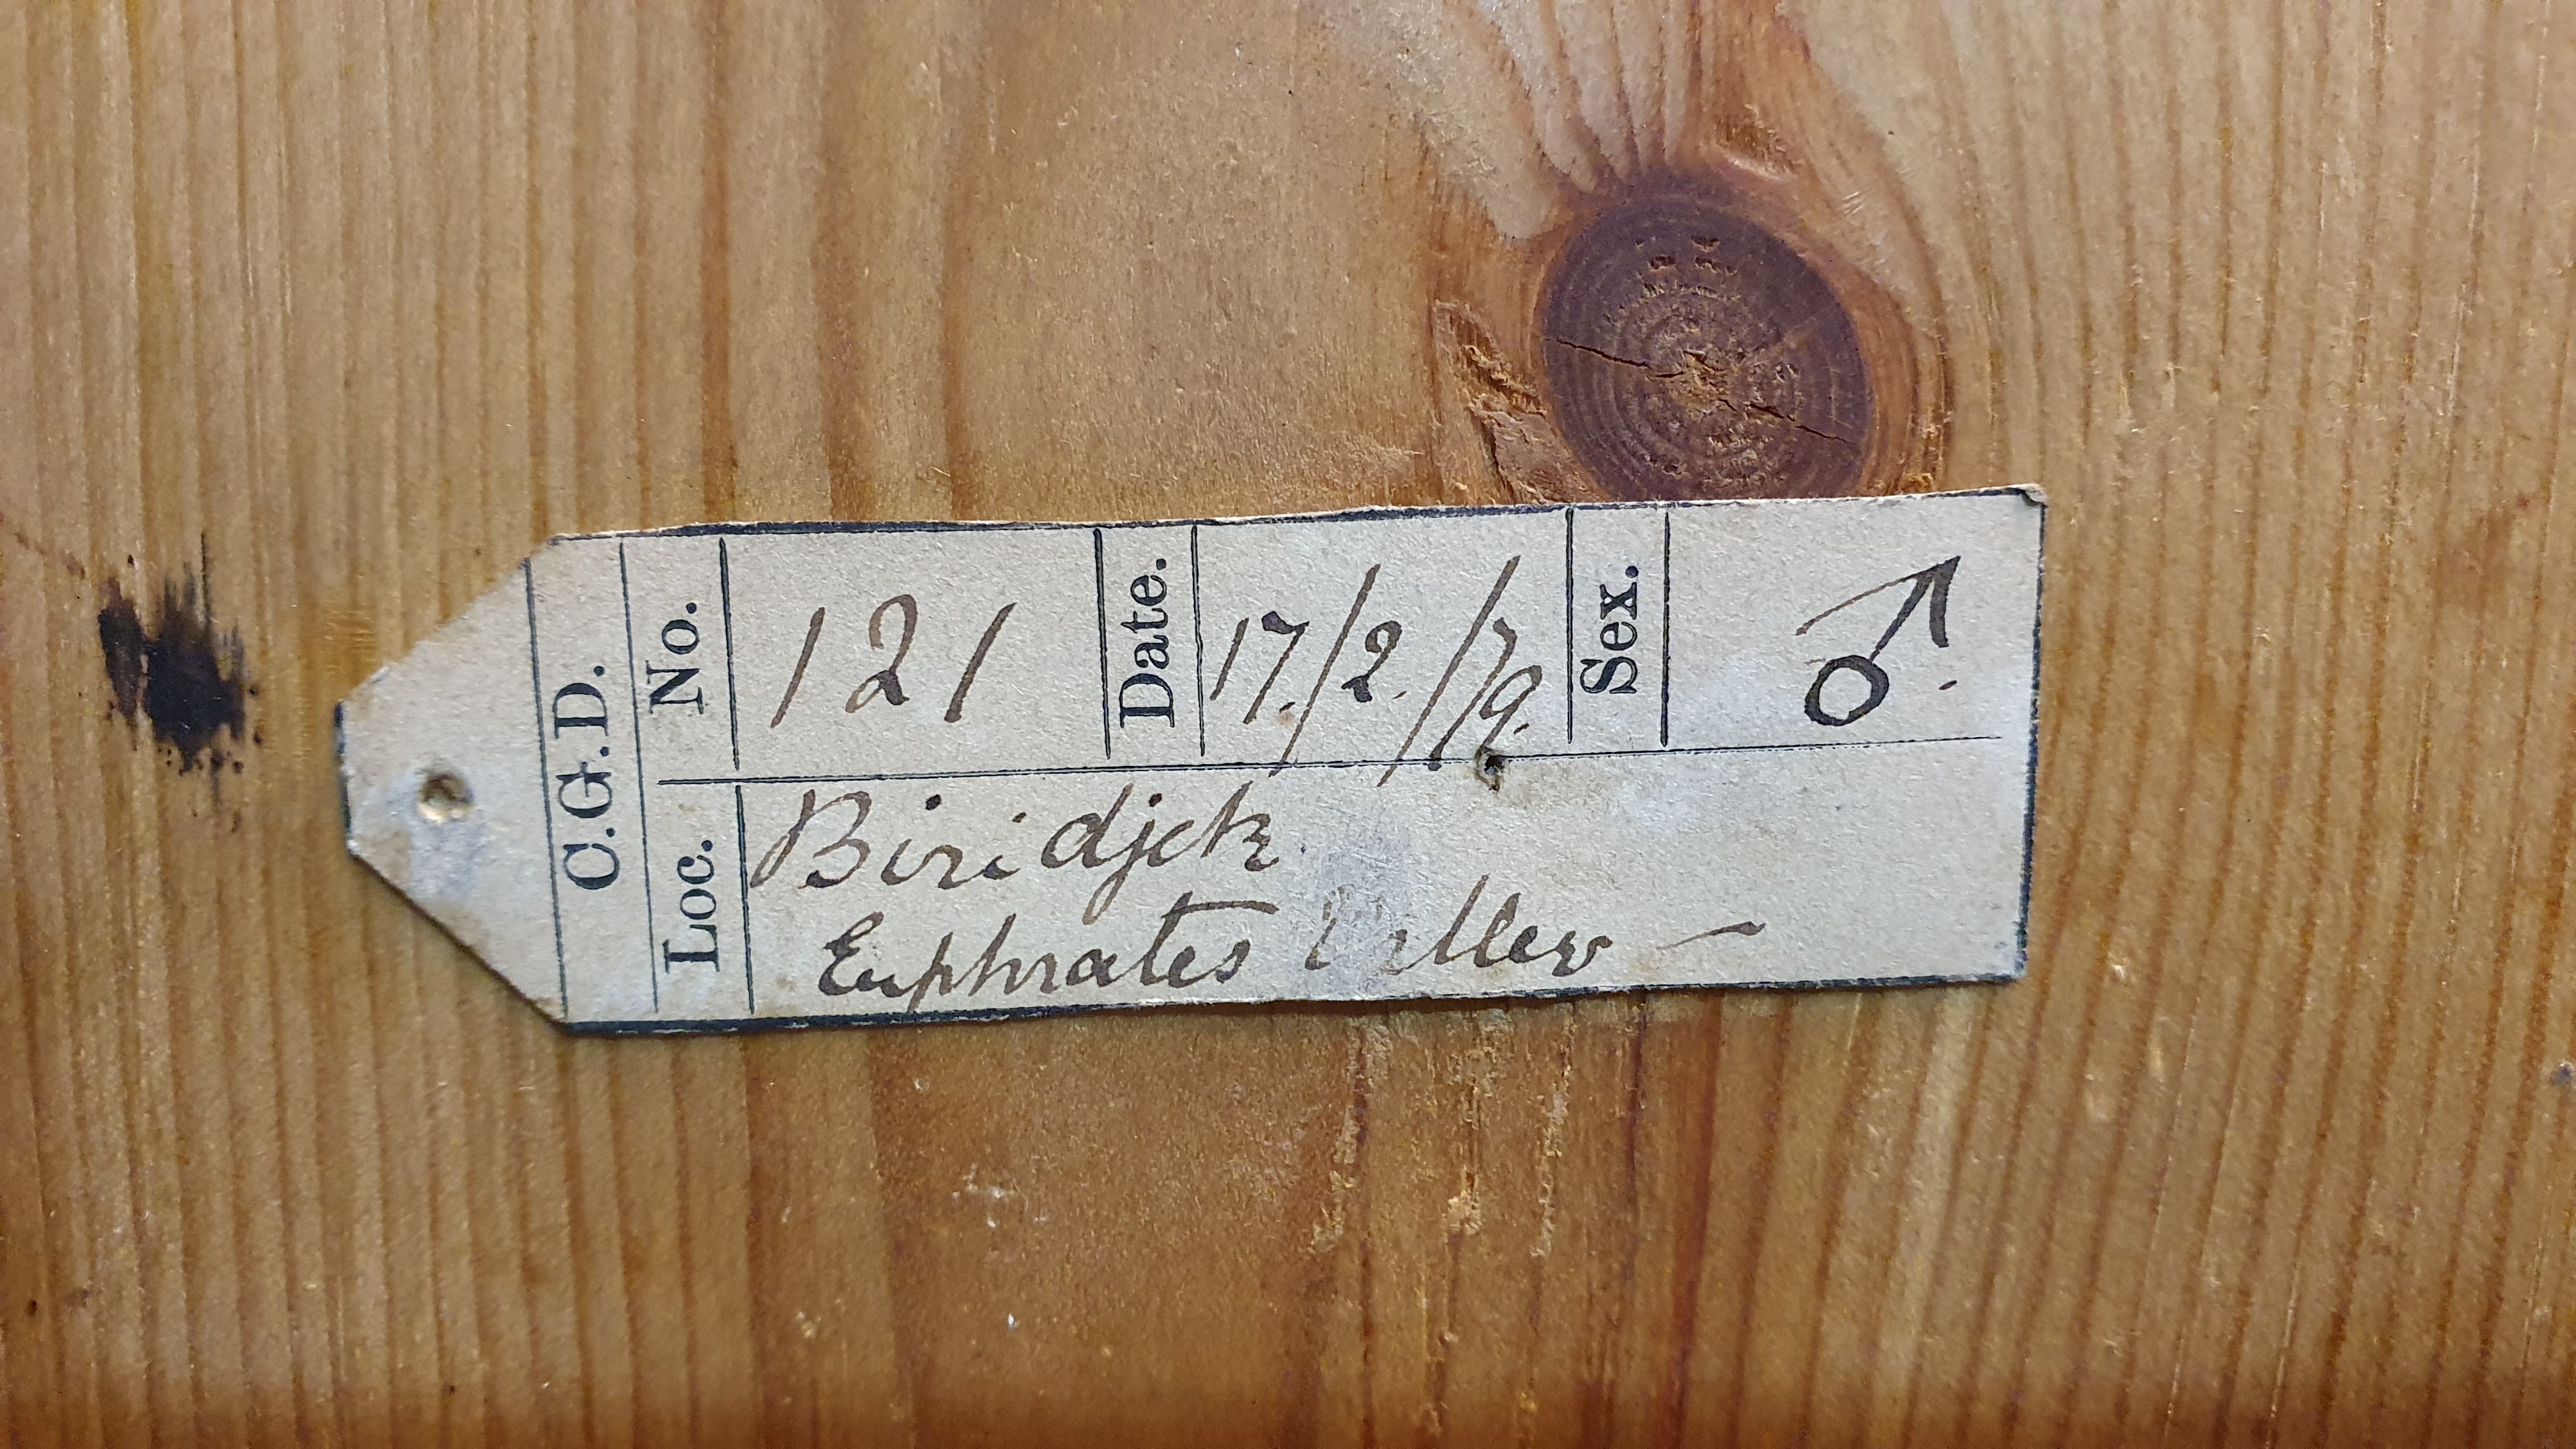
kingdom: Animalia
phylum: Chordata
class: Aves
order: Galliformes
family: Phasianidae
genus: Ammoperdix
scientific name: Ammoperdix griseogularis
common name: See-see partridge
